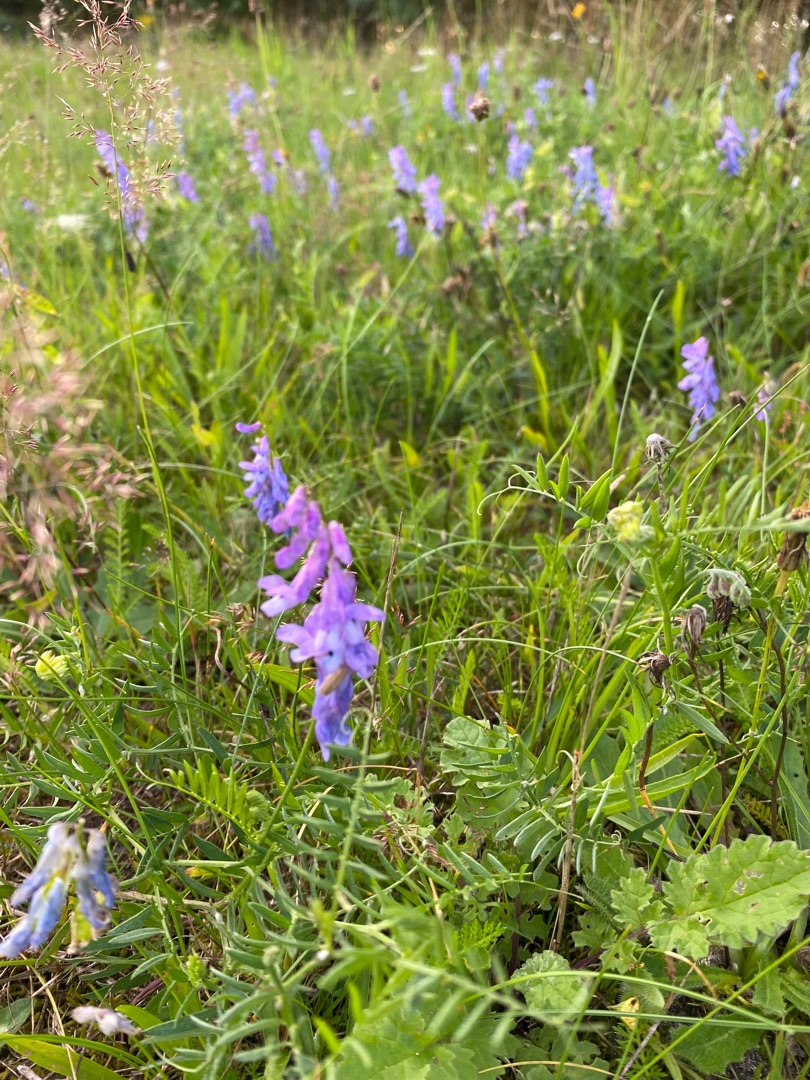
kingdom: Plantae
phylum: Tracheophyta
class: Magnoliopsida
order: Fabales
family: Fabaceae
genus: Vicia
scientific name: Vicia cracca
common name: Muse-vikke
